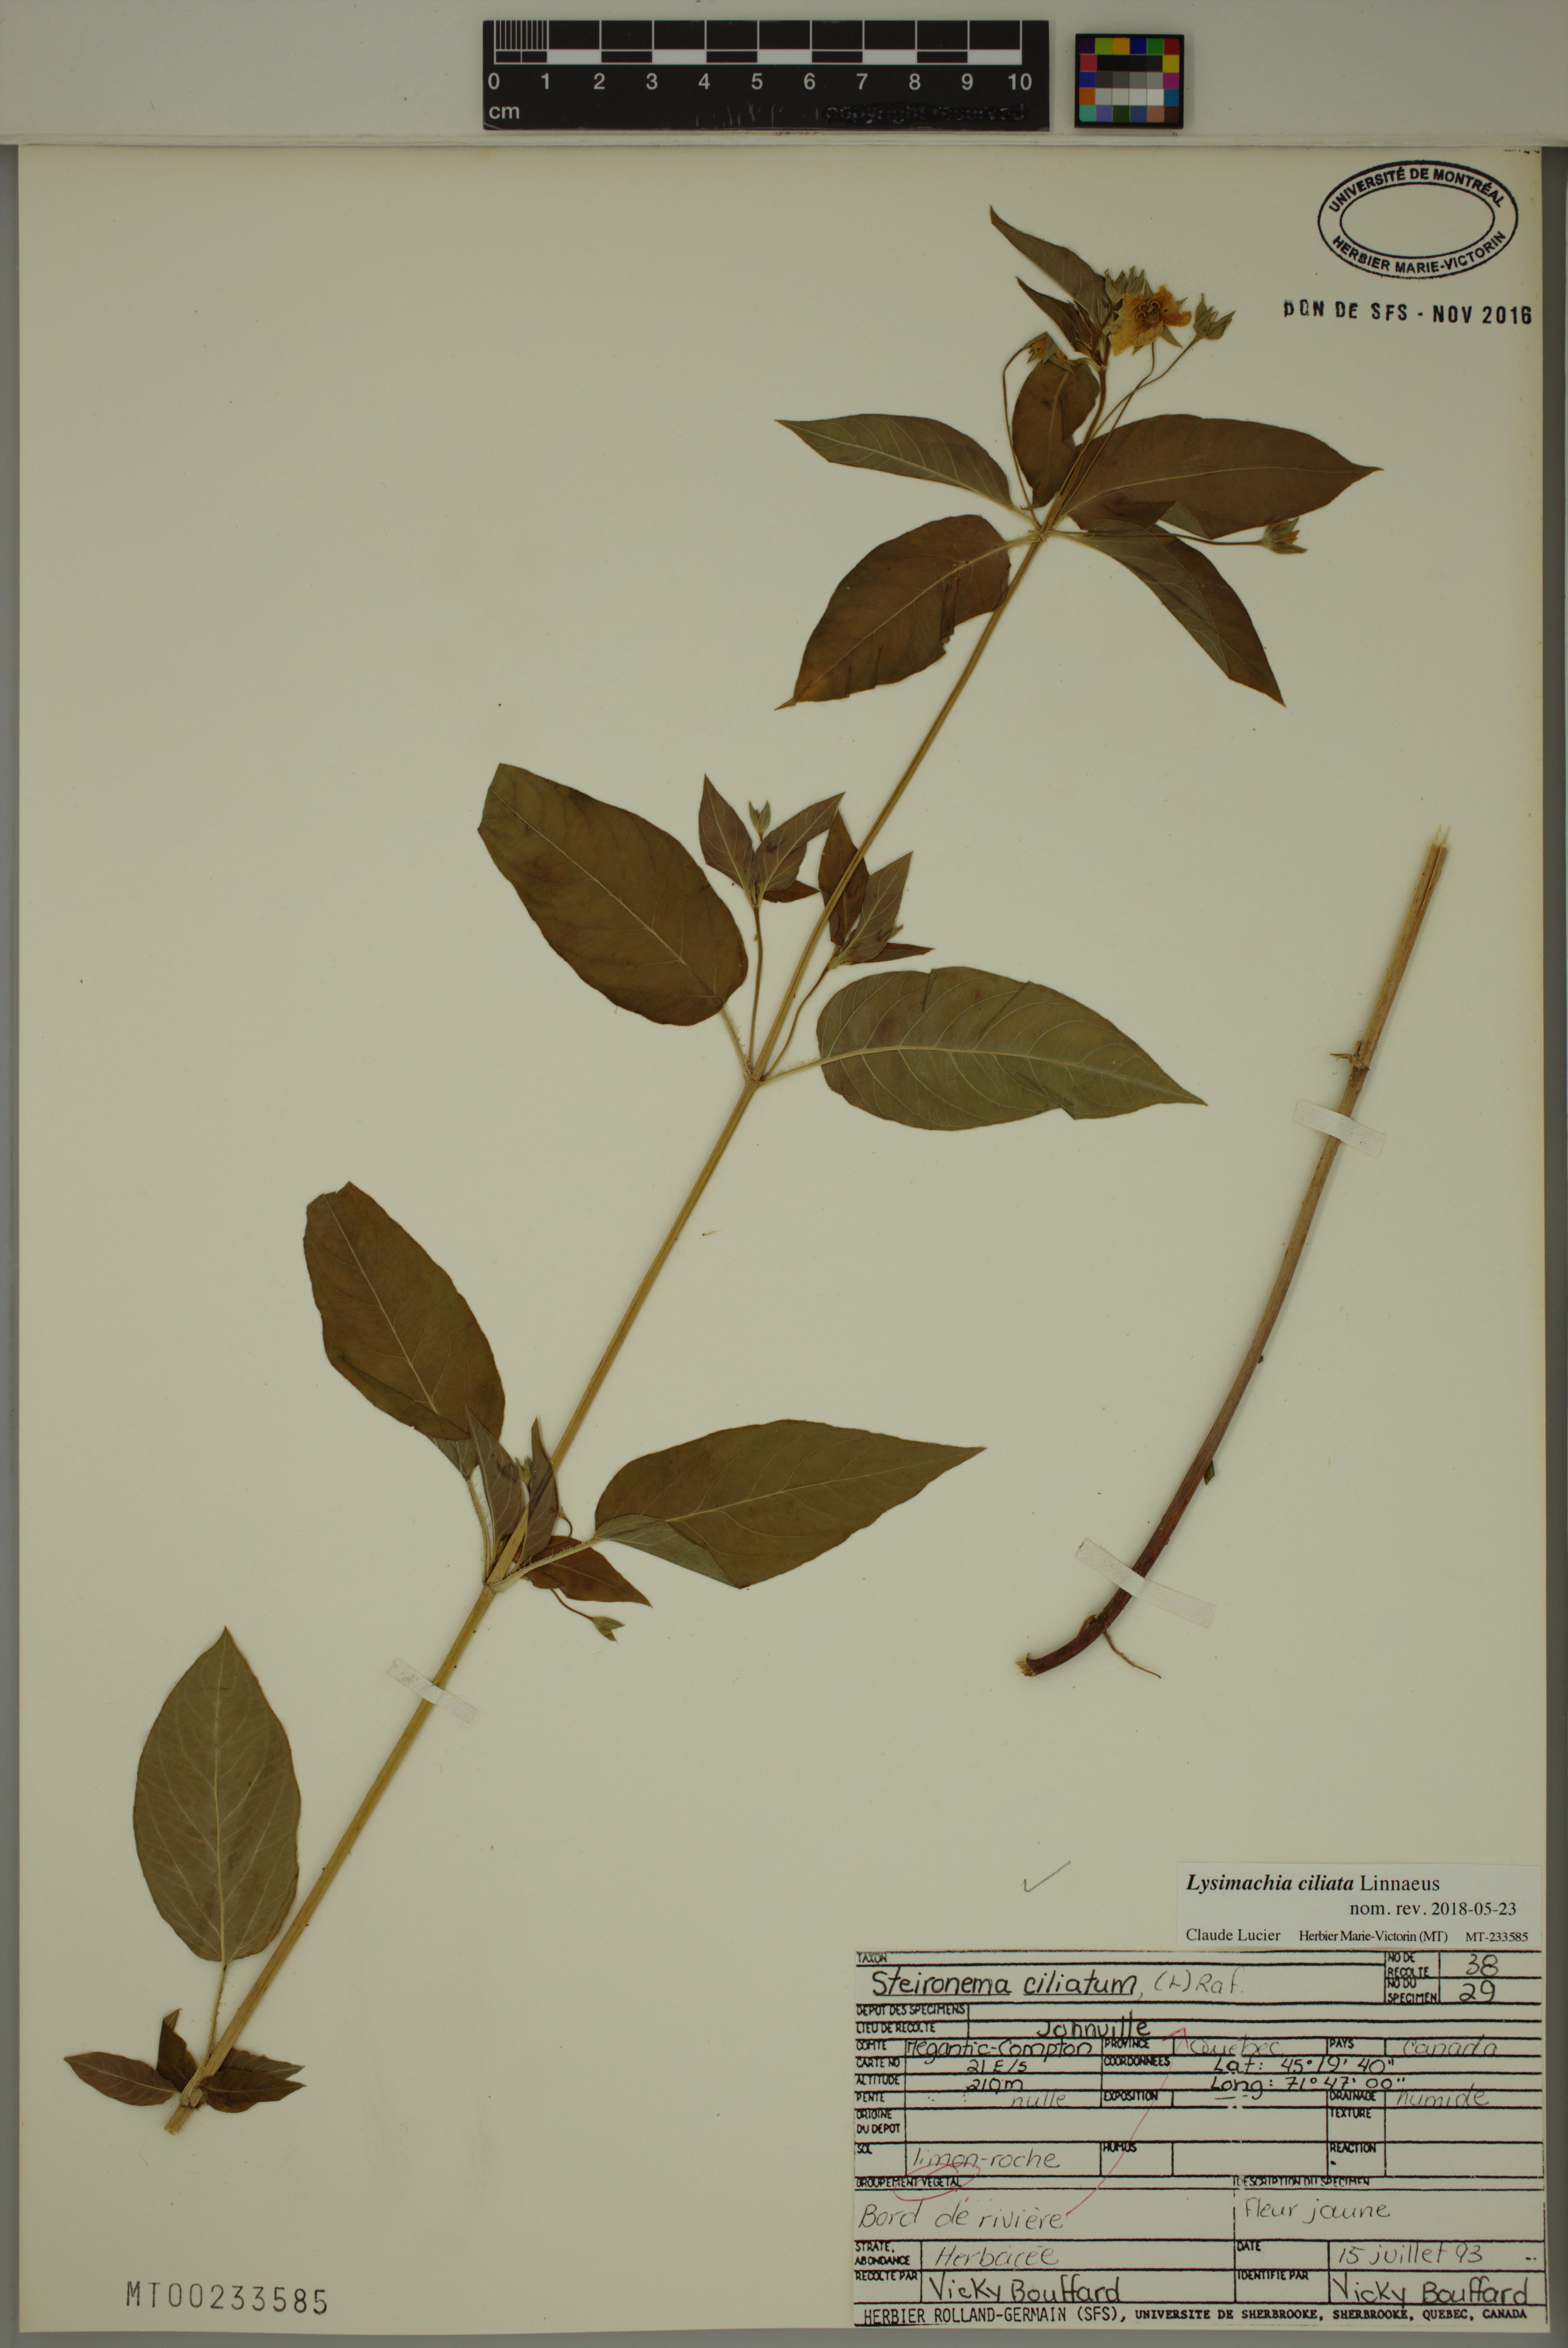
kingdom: Plantae
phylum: Tracheophyta
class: Magnoliopsida
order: Ericales
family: Primulaceae
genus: Lysimachia
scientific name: Lysimachia ciliata
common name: Fringed loosestrife
